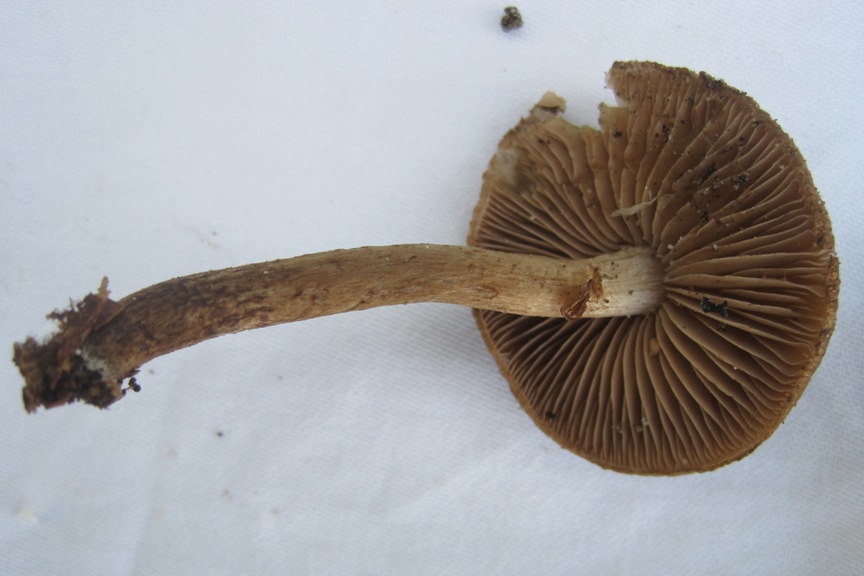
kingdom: Fungi
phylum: Basidiomycota
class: Agaricomycetes
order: Agaricales
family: Inocybaceae
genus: Inocybe
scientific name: Inocybe lanuginosa
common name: uldskællet trævlhat
